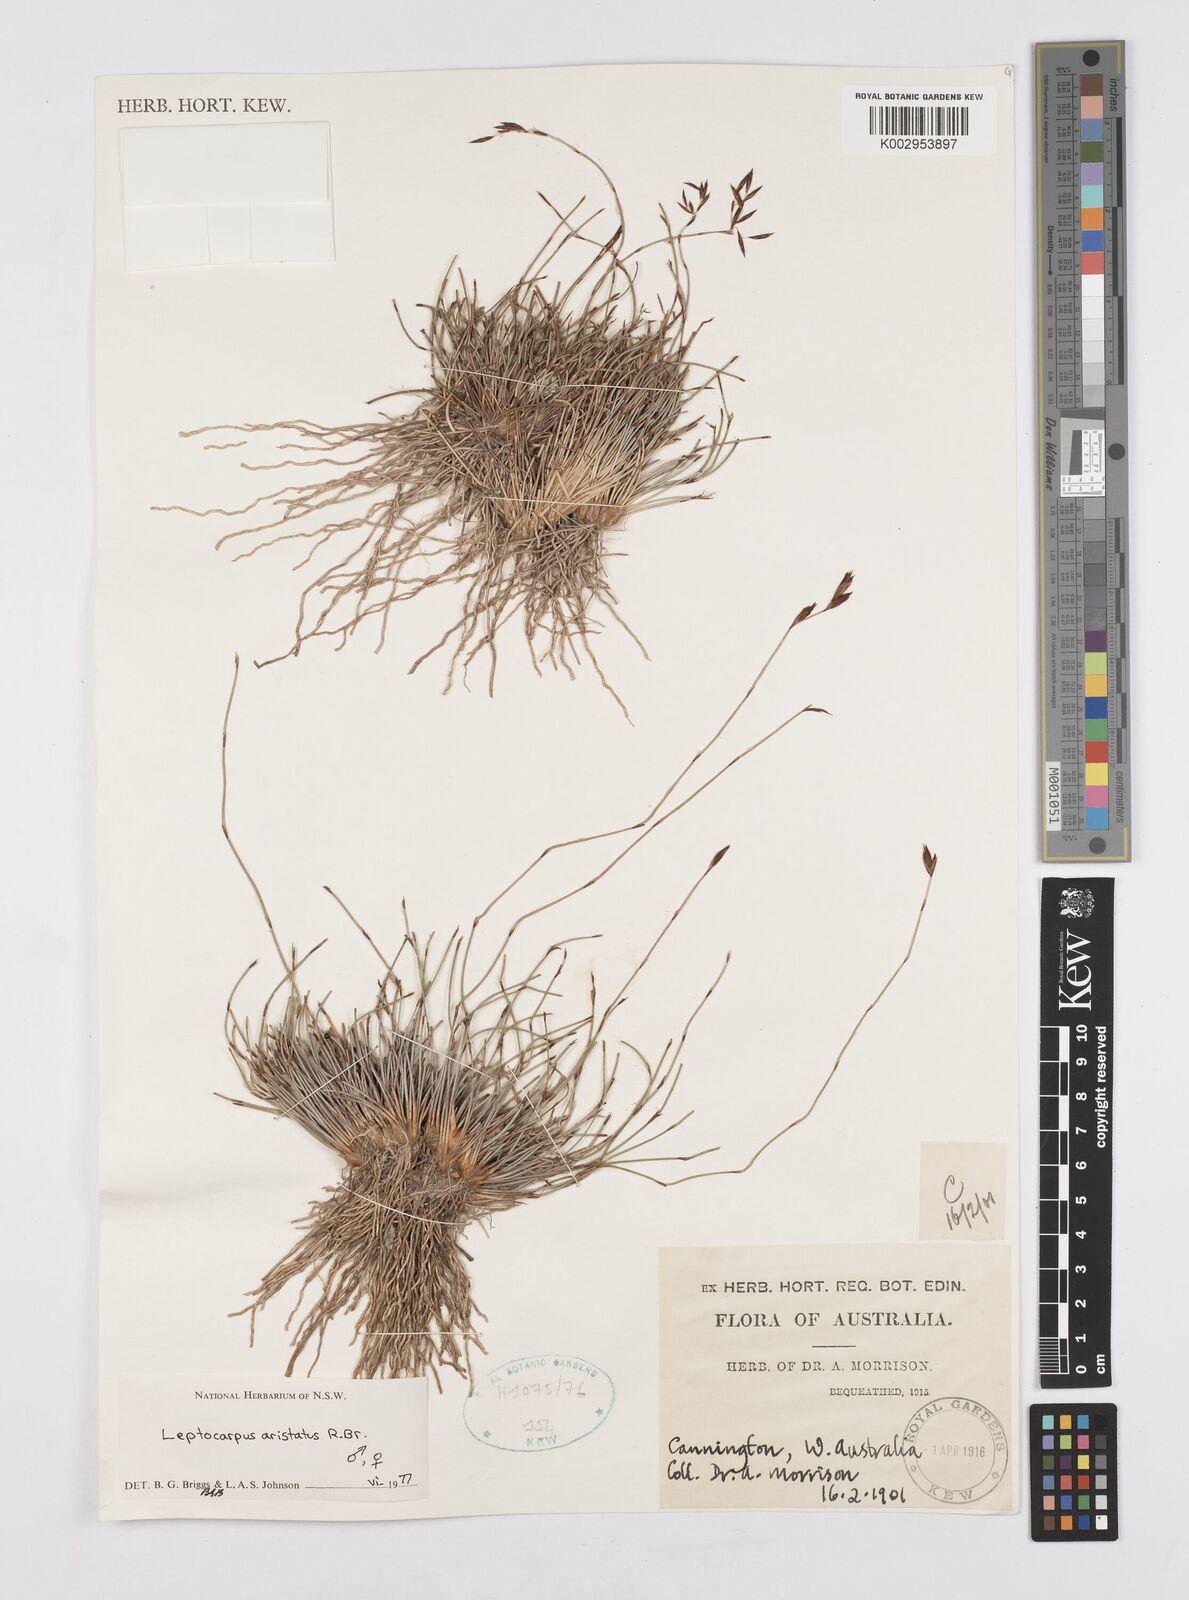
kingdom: Plantae
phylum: Tracheophyta
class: Liliopsida
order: Poales
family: Restionaceae
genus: Chaetanthus
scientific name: Chaetanthus aristatus
